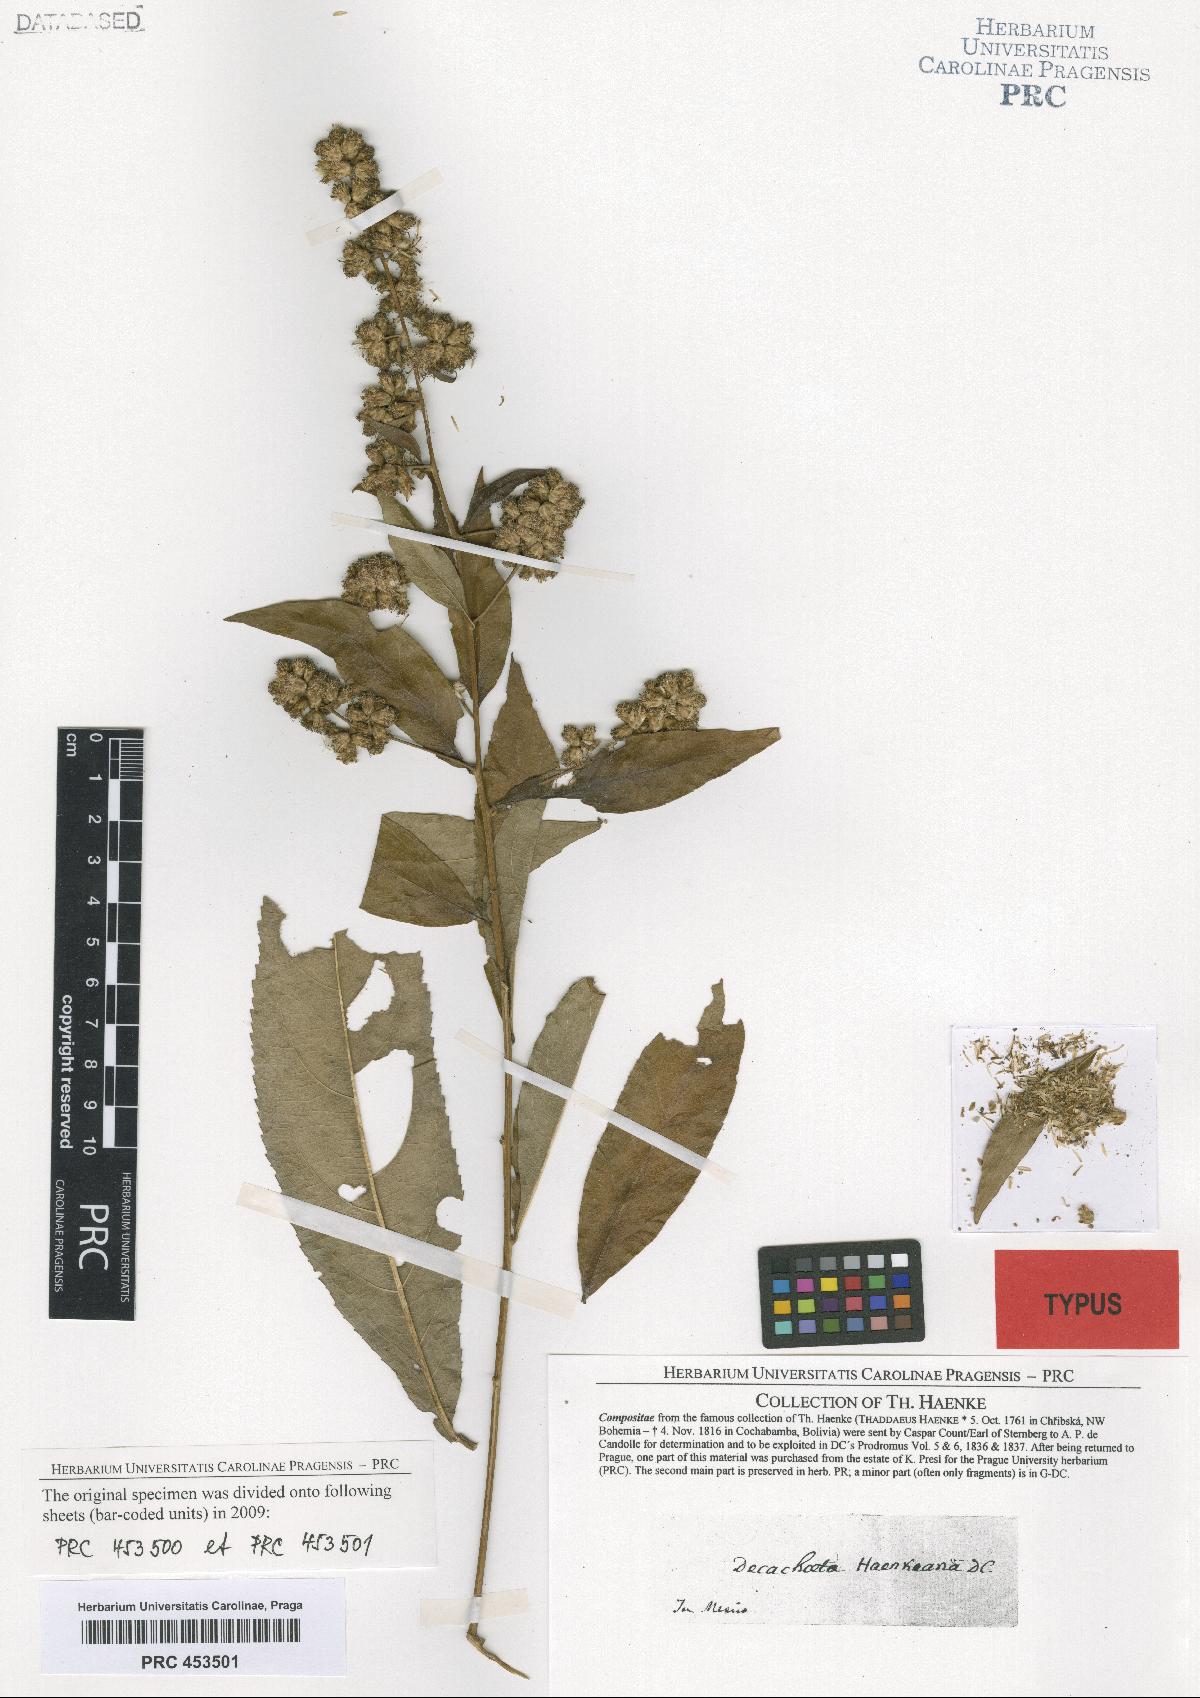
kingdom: Plantae
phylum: Tracheophyta
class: Magnoliopsida
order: Asterales
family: Asteraceae
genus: Decachaeta
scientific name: Decachaeta haenkeana
